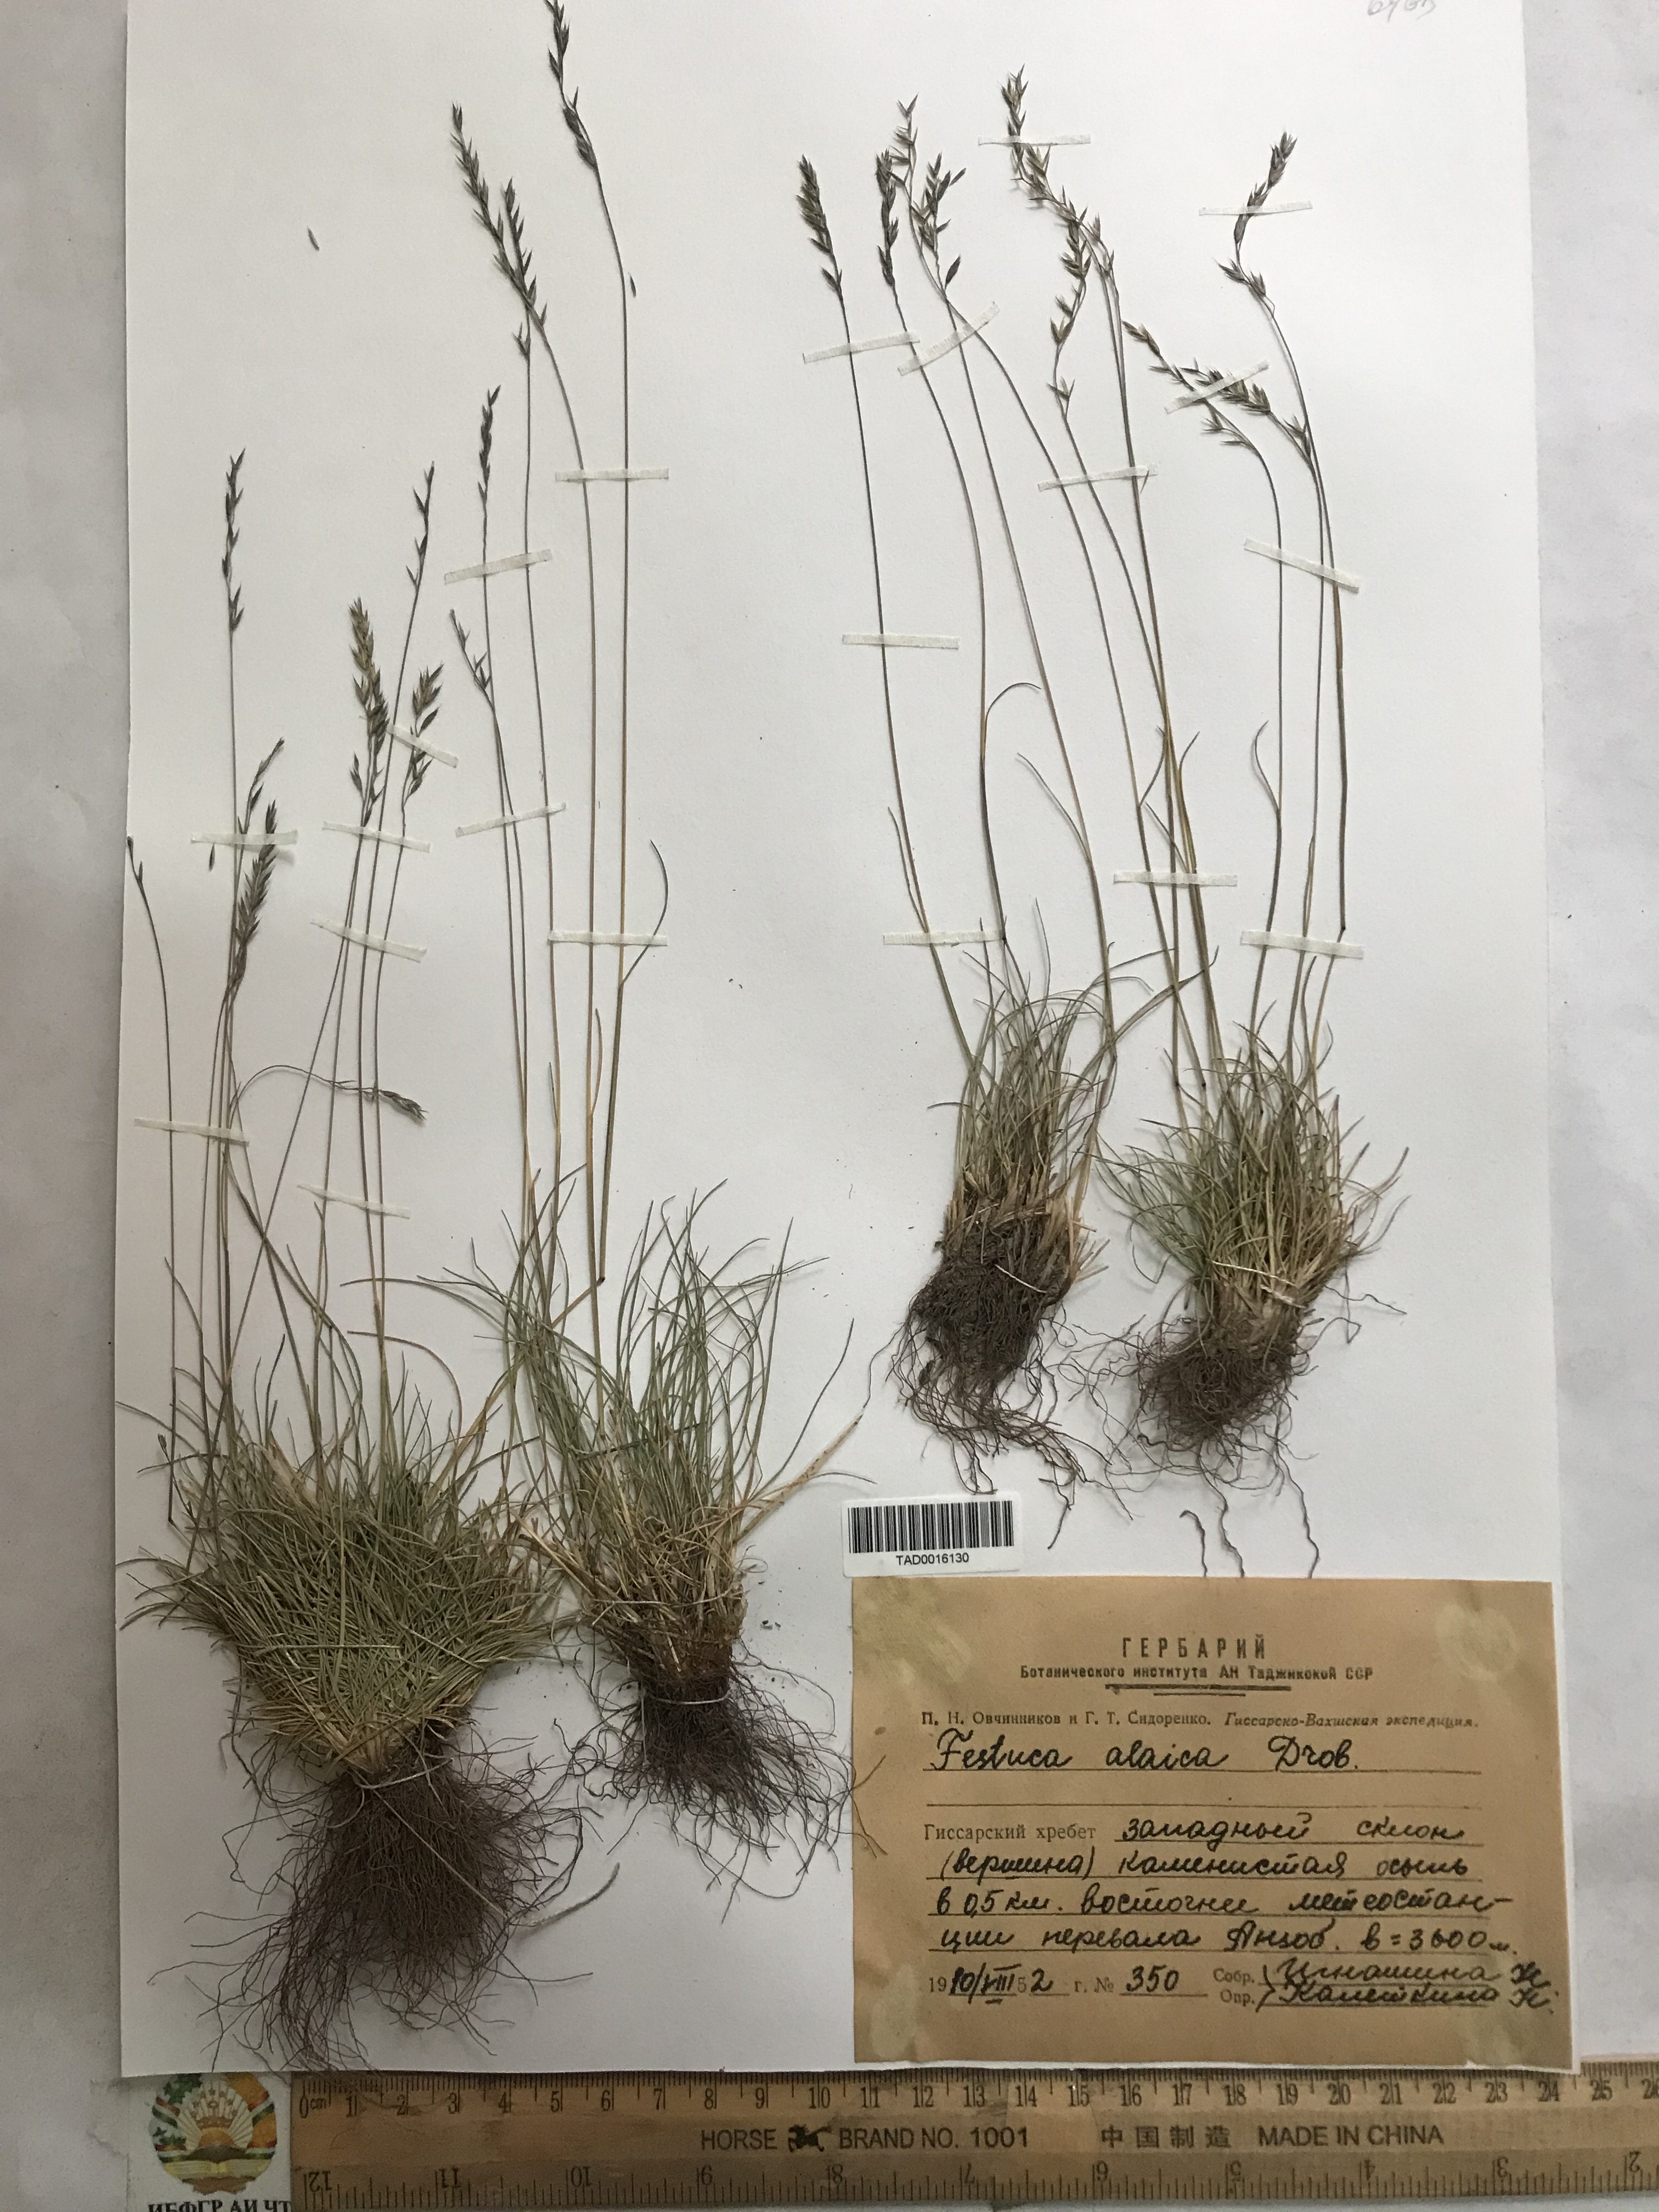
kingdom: Plantae
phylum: Tracheophyta
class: Liliopsida
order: Poales
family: Poaceae
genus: Festuca
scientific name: Festuca alaica
